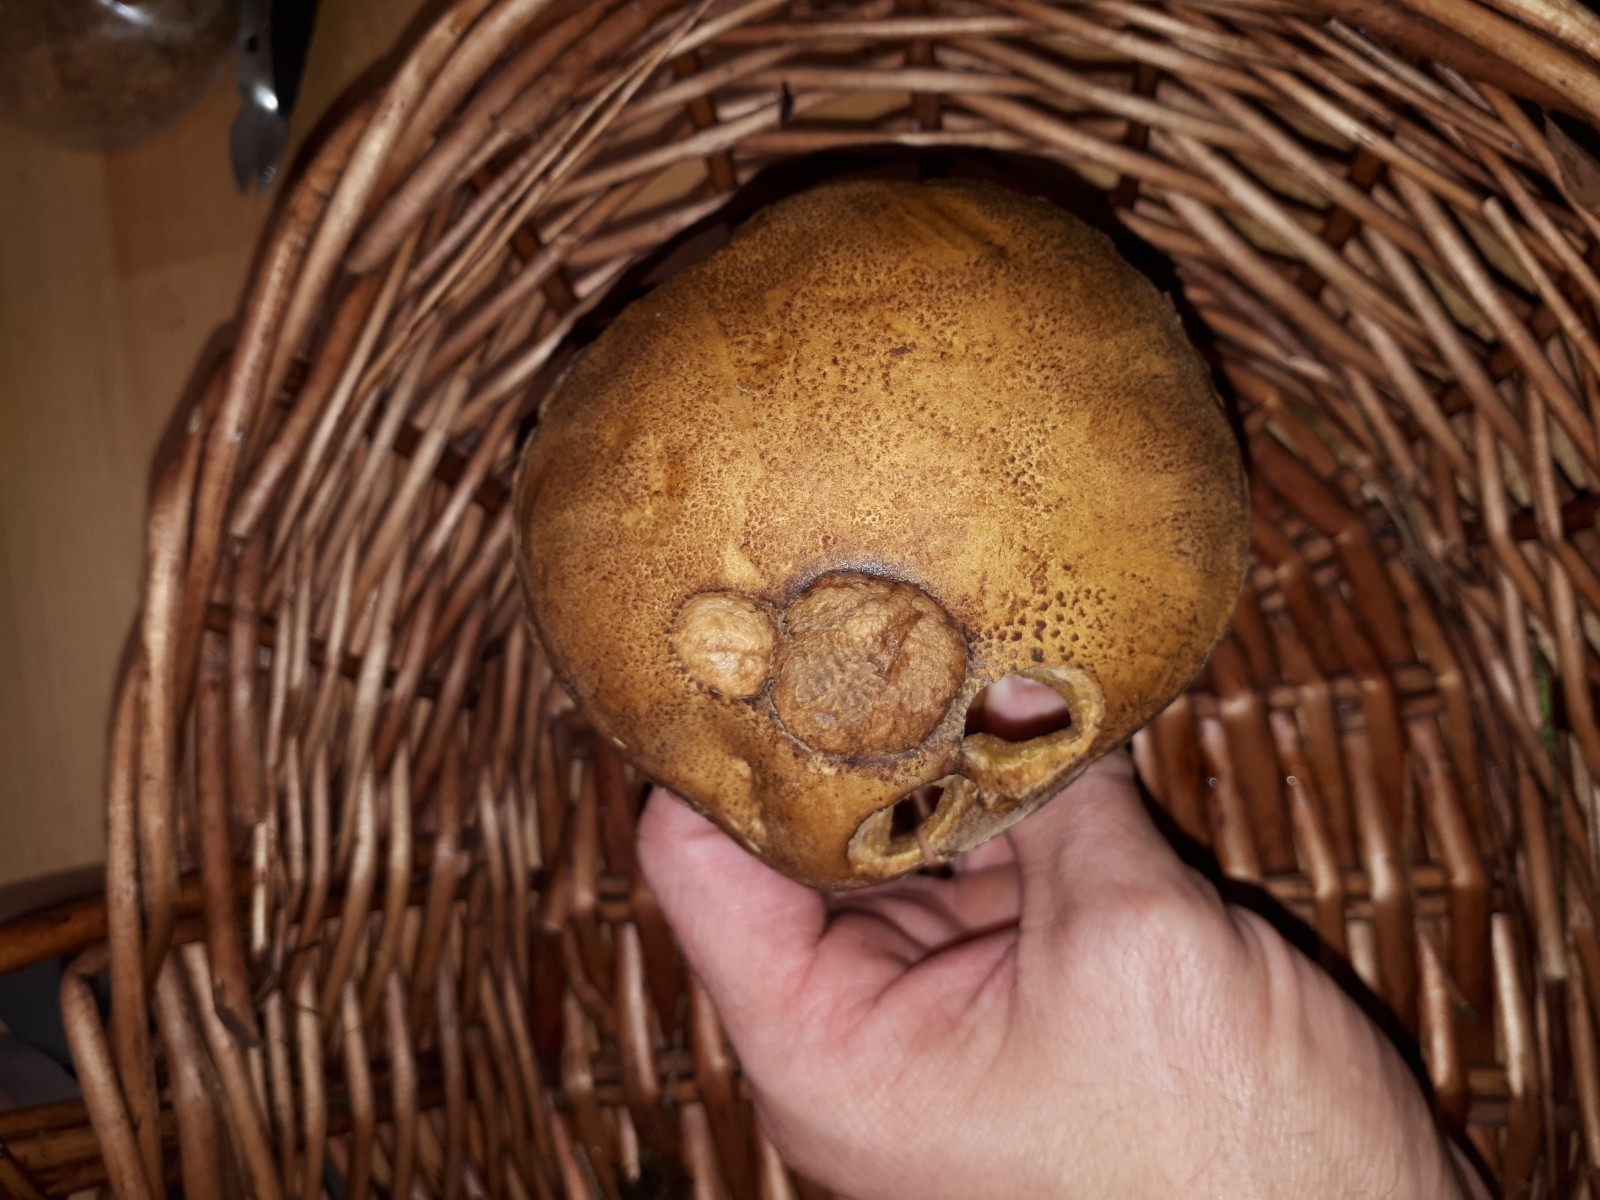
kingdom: Fungi
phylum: Basidiomycota
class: Agaricomycetes
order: Boletales
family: Suillaceae
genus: Suillus
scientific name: Suillus variegatus
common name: broget slimrørhat
